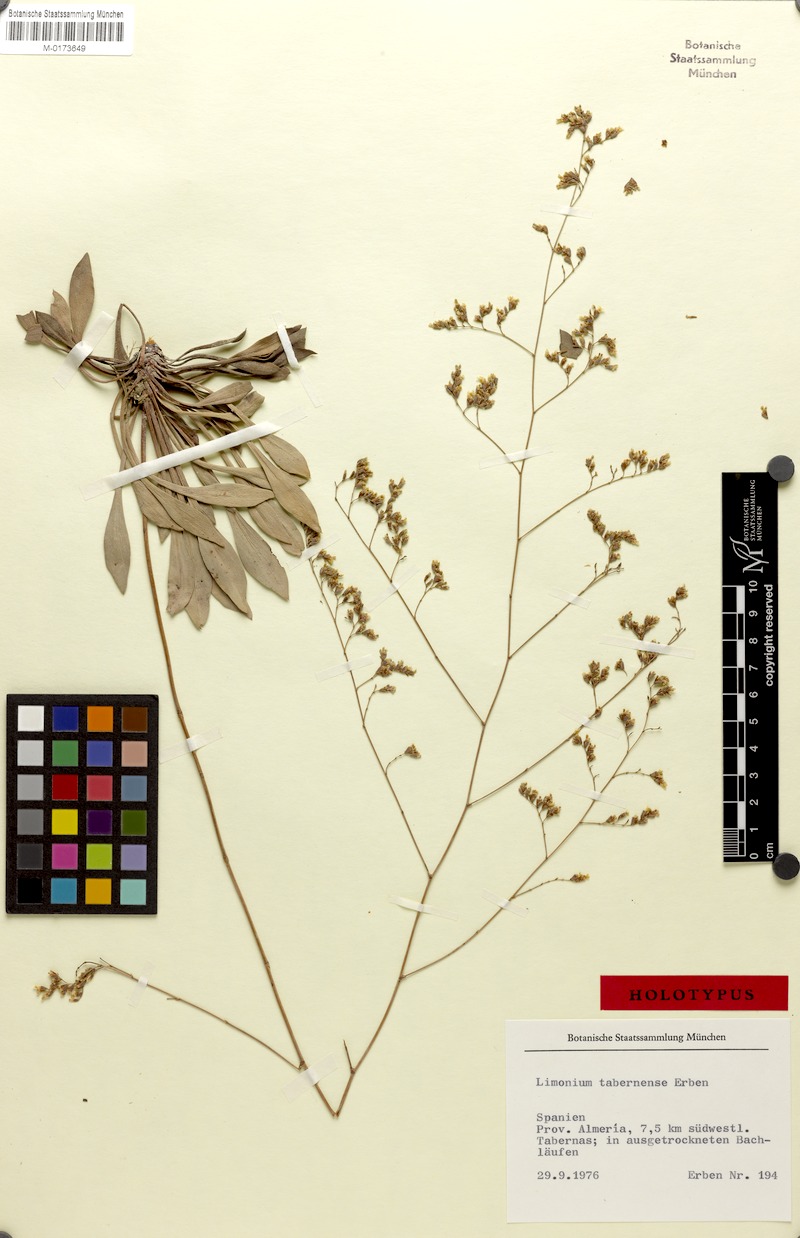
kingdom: Plantae
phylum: Tracheophyta
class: Magnoliopsida
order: Caryophyllales
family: Plumbaginaceae
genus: Limonium
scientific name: Limonium tabernense
